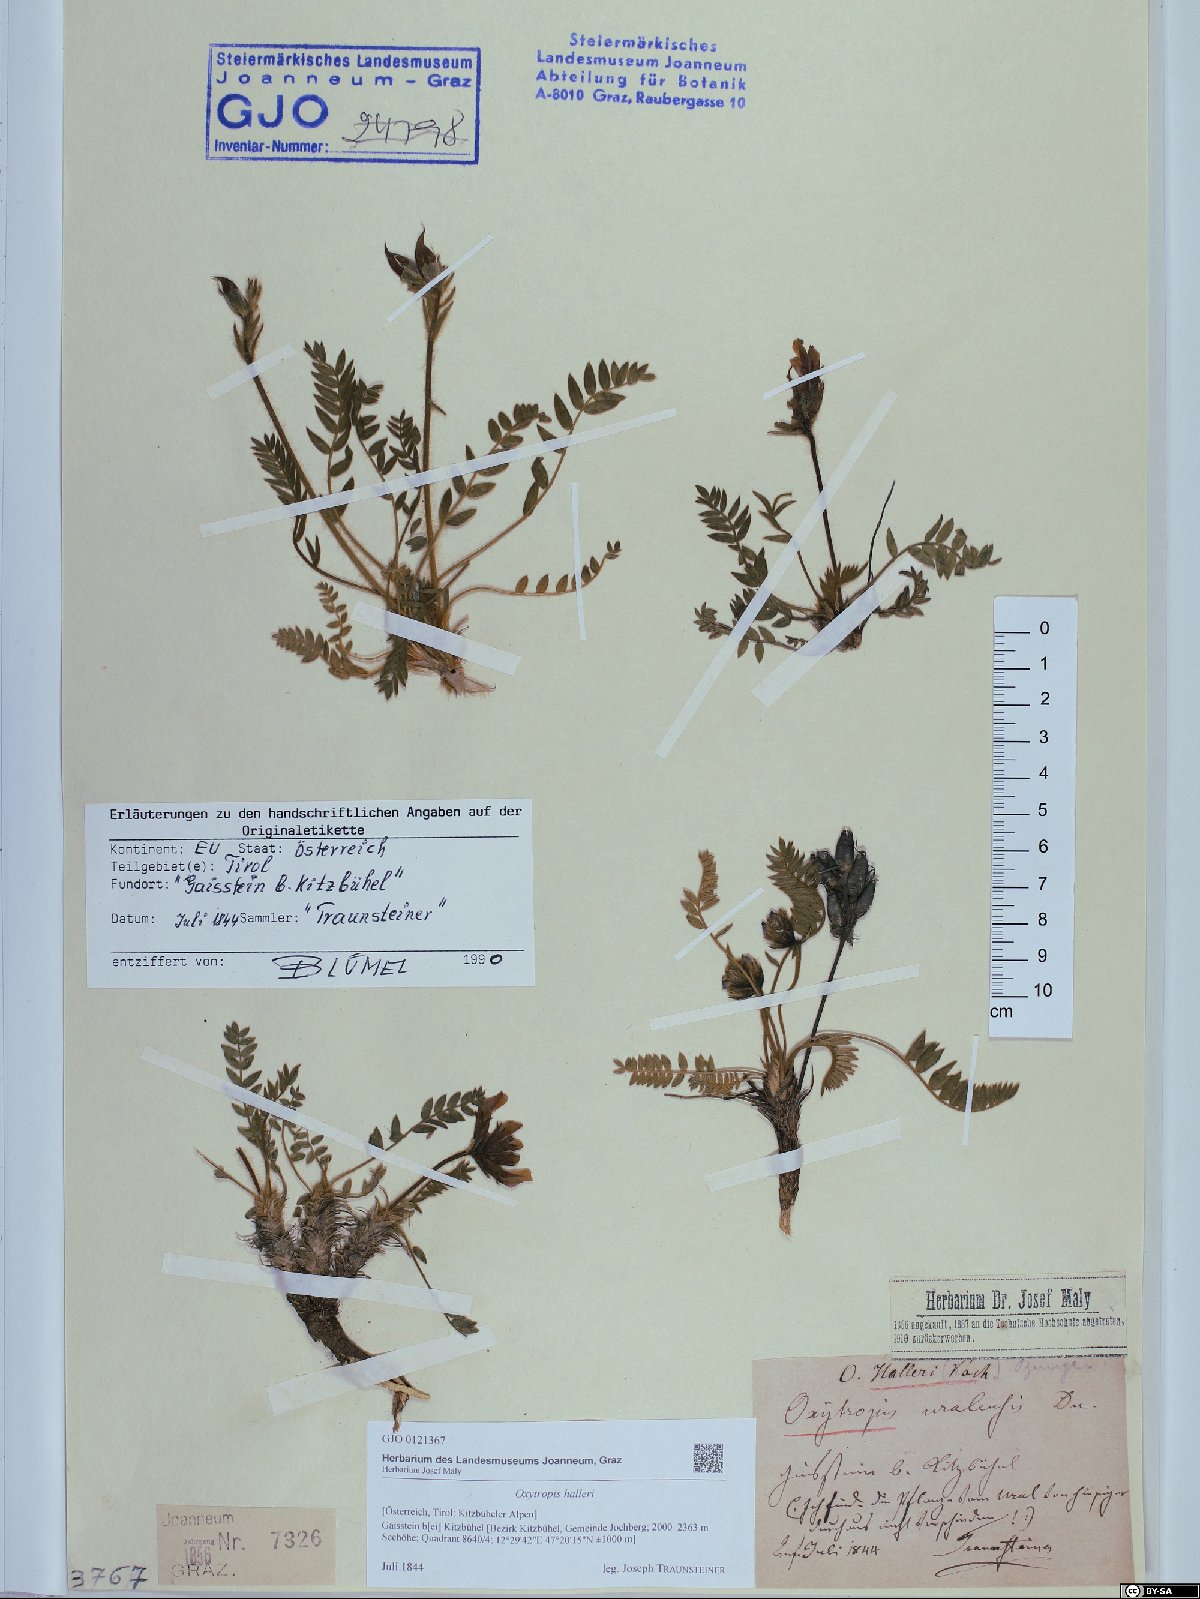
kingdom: Plantae
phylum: Tracheophyta
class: Magnoliopsida
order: Fabales
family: Fabaceae
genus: Oxytropis
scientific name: Oxytropis halleri
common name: Purple oxytropis
